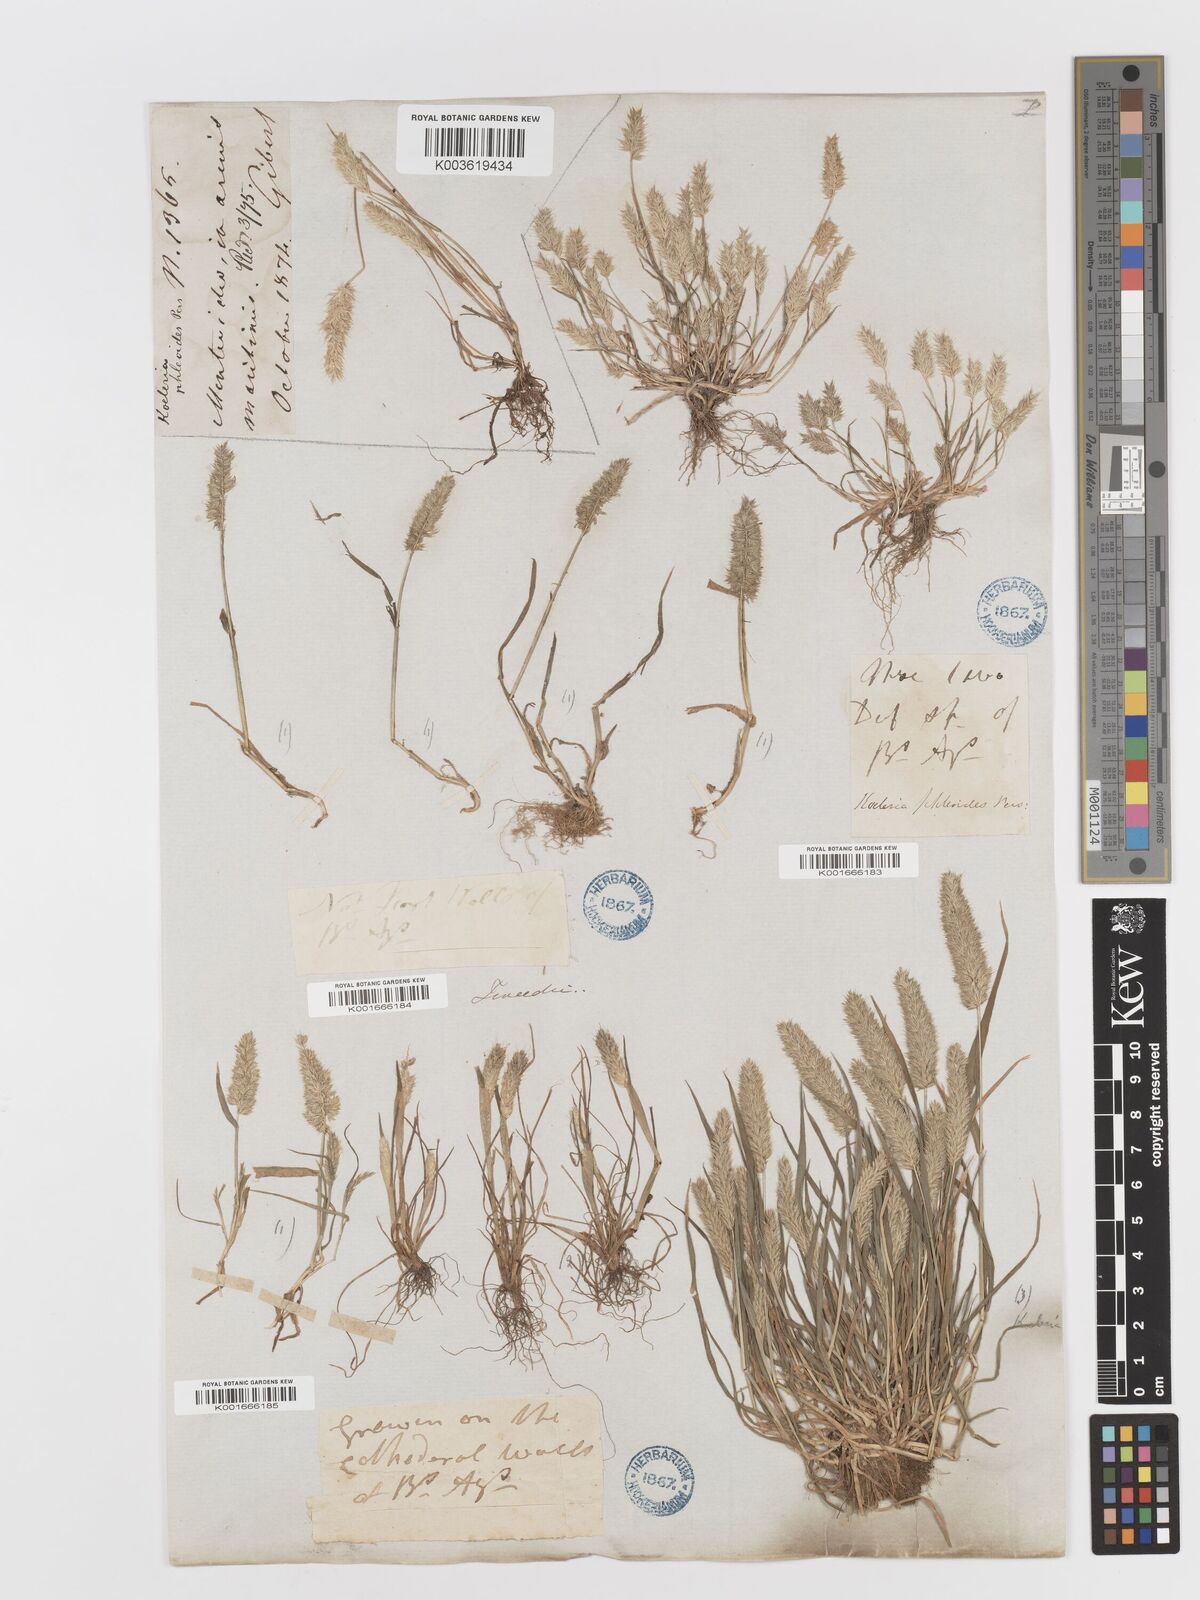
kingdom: Plantae
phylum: Tracheophyta
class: Liliopsida
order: Poales
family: Poaceae
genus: Rostraria
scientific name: Rostraria cristata
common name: Mediterranean hair-grass
